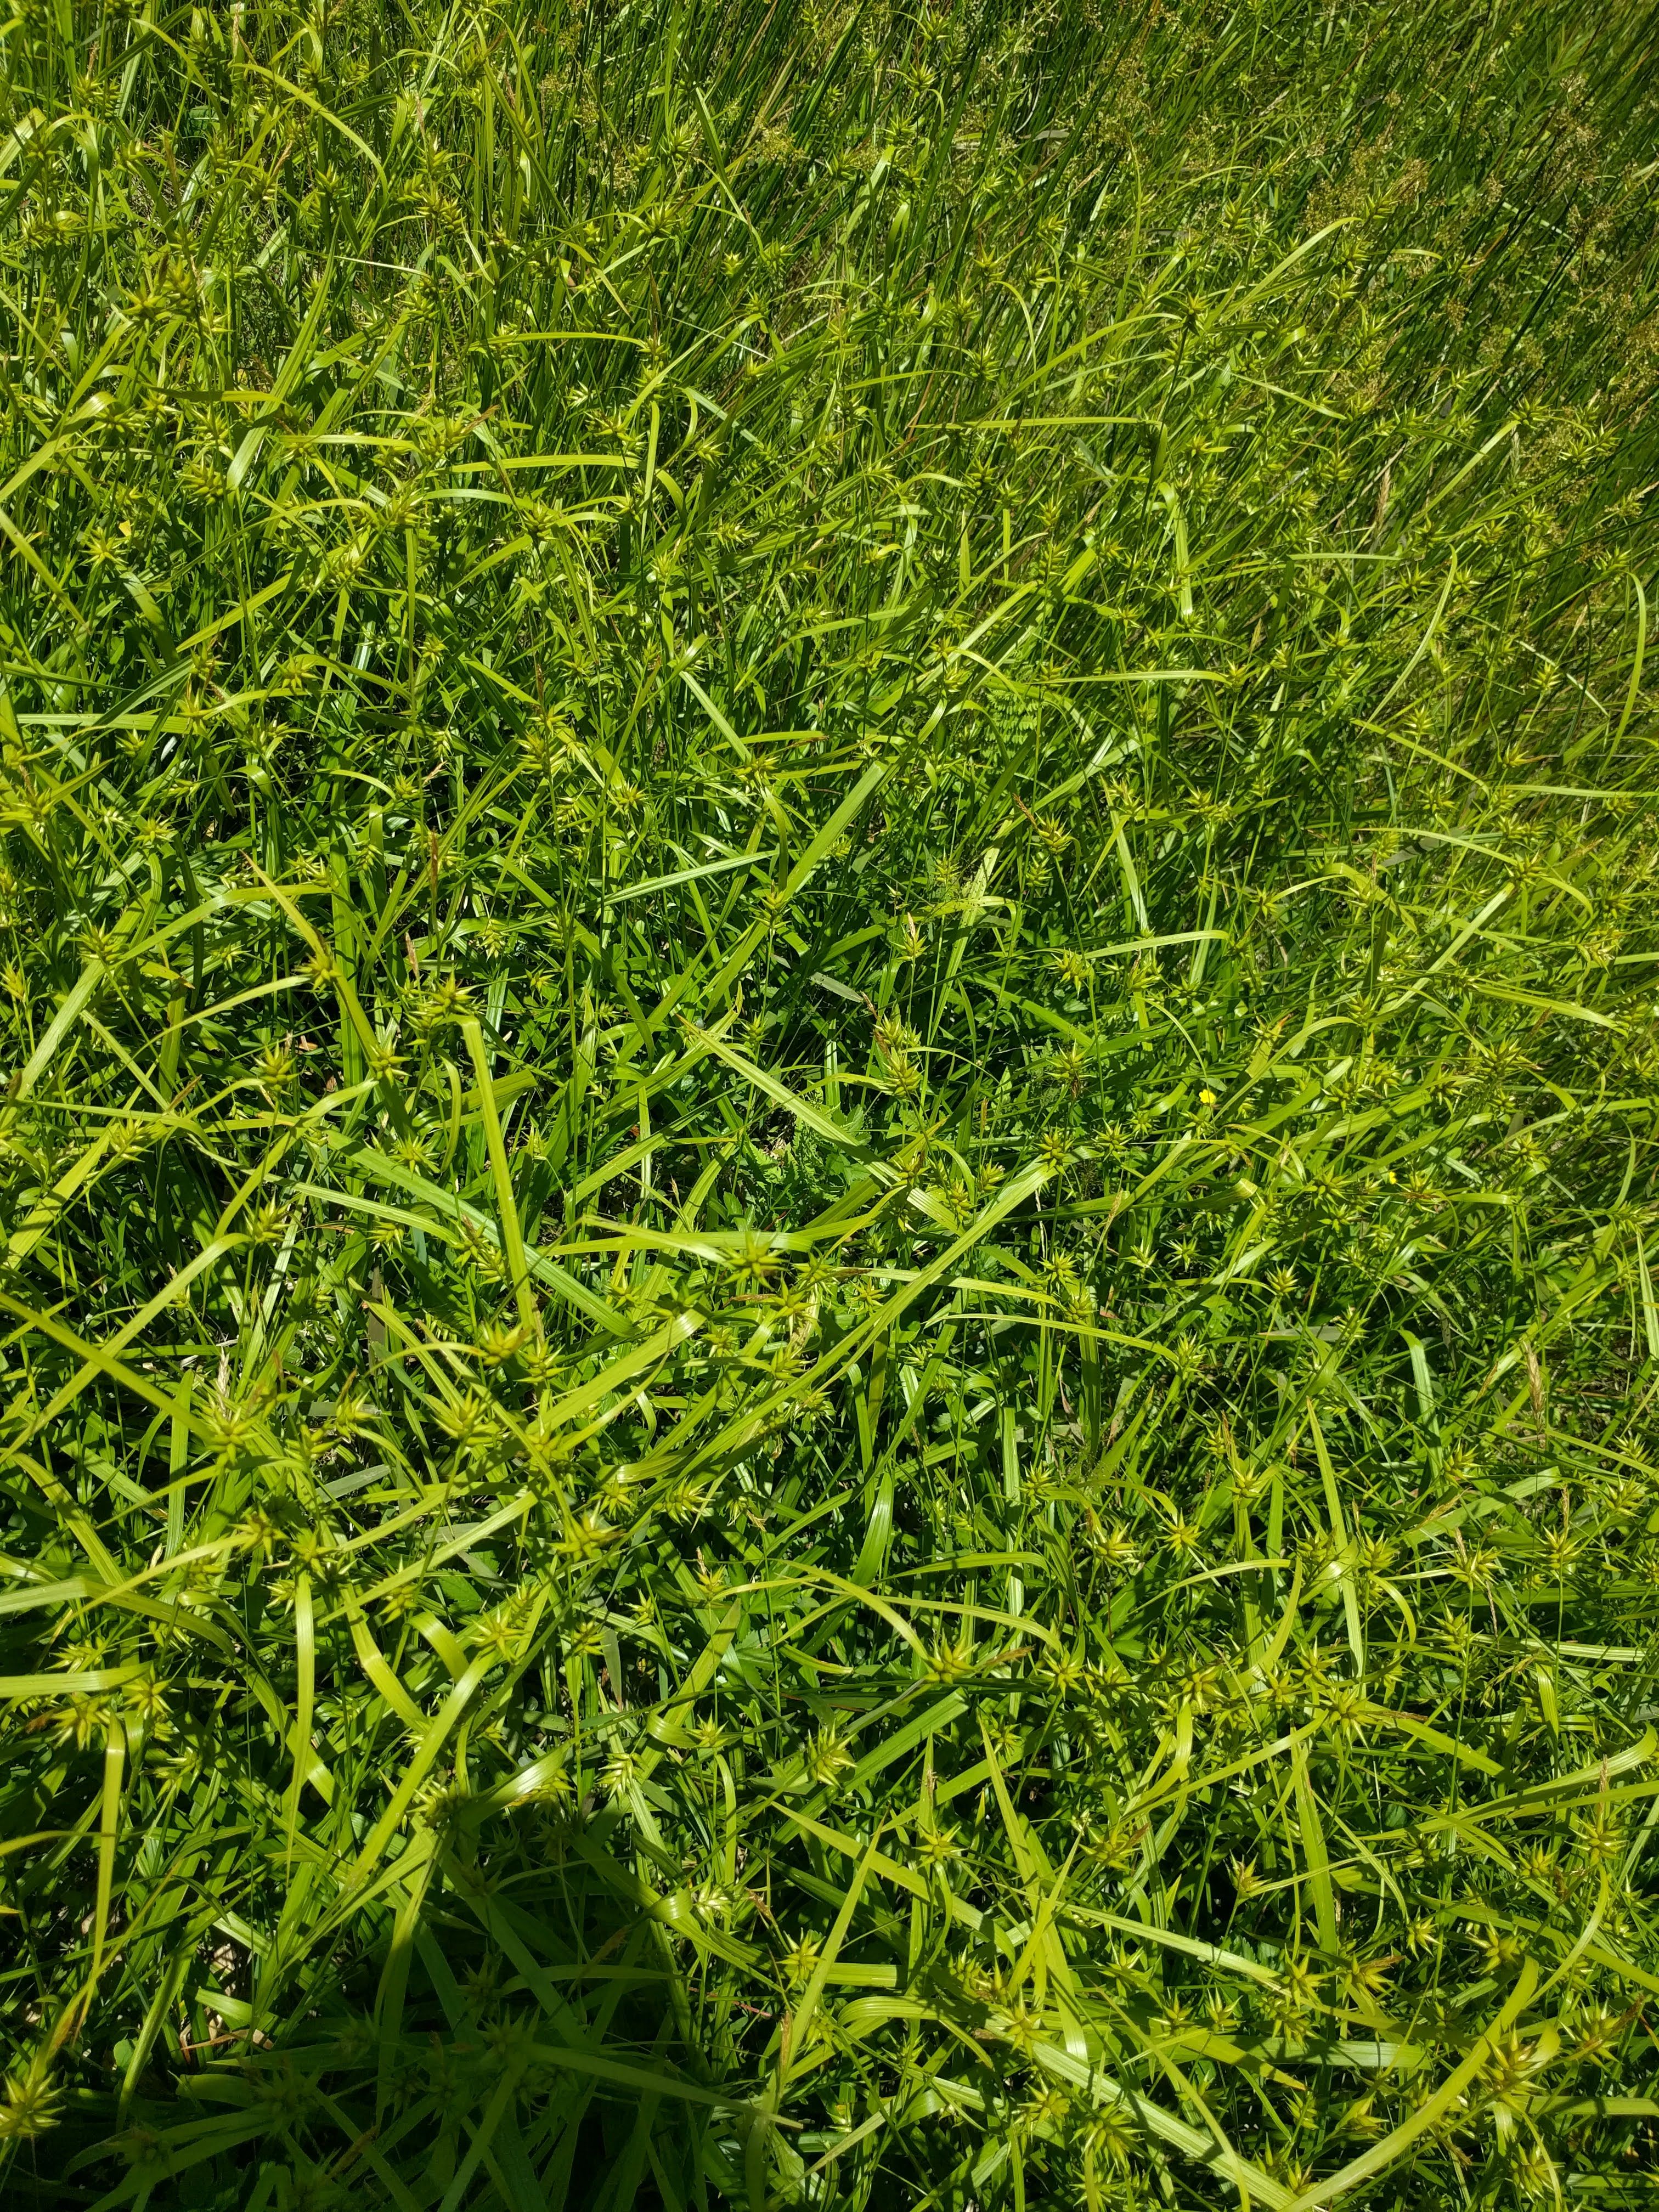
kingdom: Plantae
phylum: Tracheophyta
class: Liliopsida
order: Poales
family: Cyperaceae
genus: Carex
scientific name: Carex folliculata
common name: Northern long sedge
